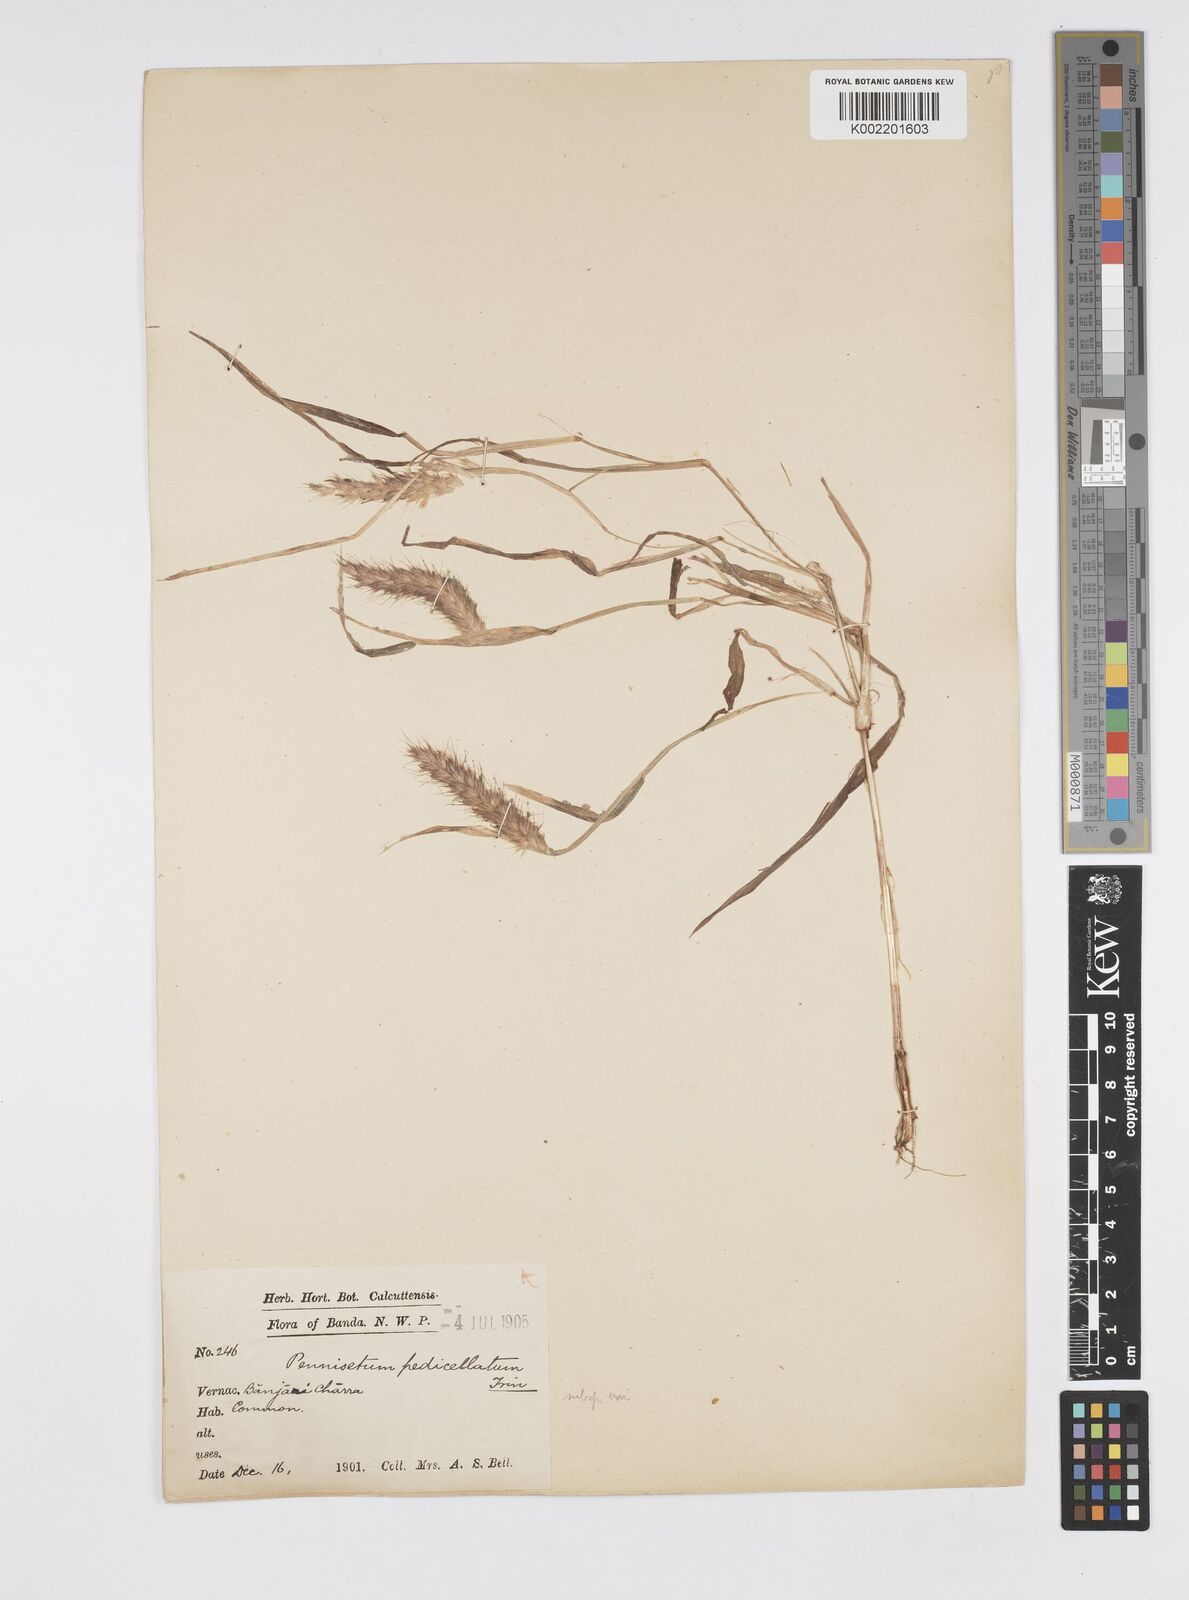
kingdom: Plantae
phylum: Tracheophyta
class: Liliopsida
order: Poales
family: Poaceae
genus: Cenchrus
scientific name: Cenchrus pedicellatus
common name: Hairy fountain grass
